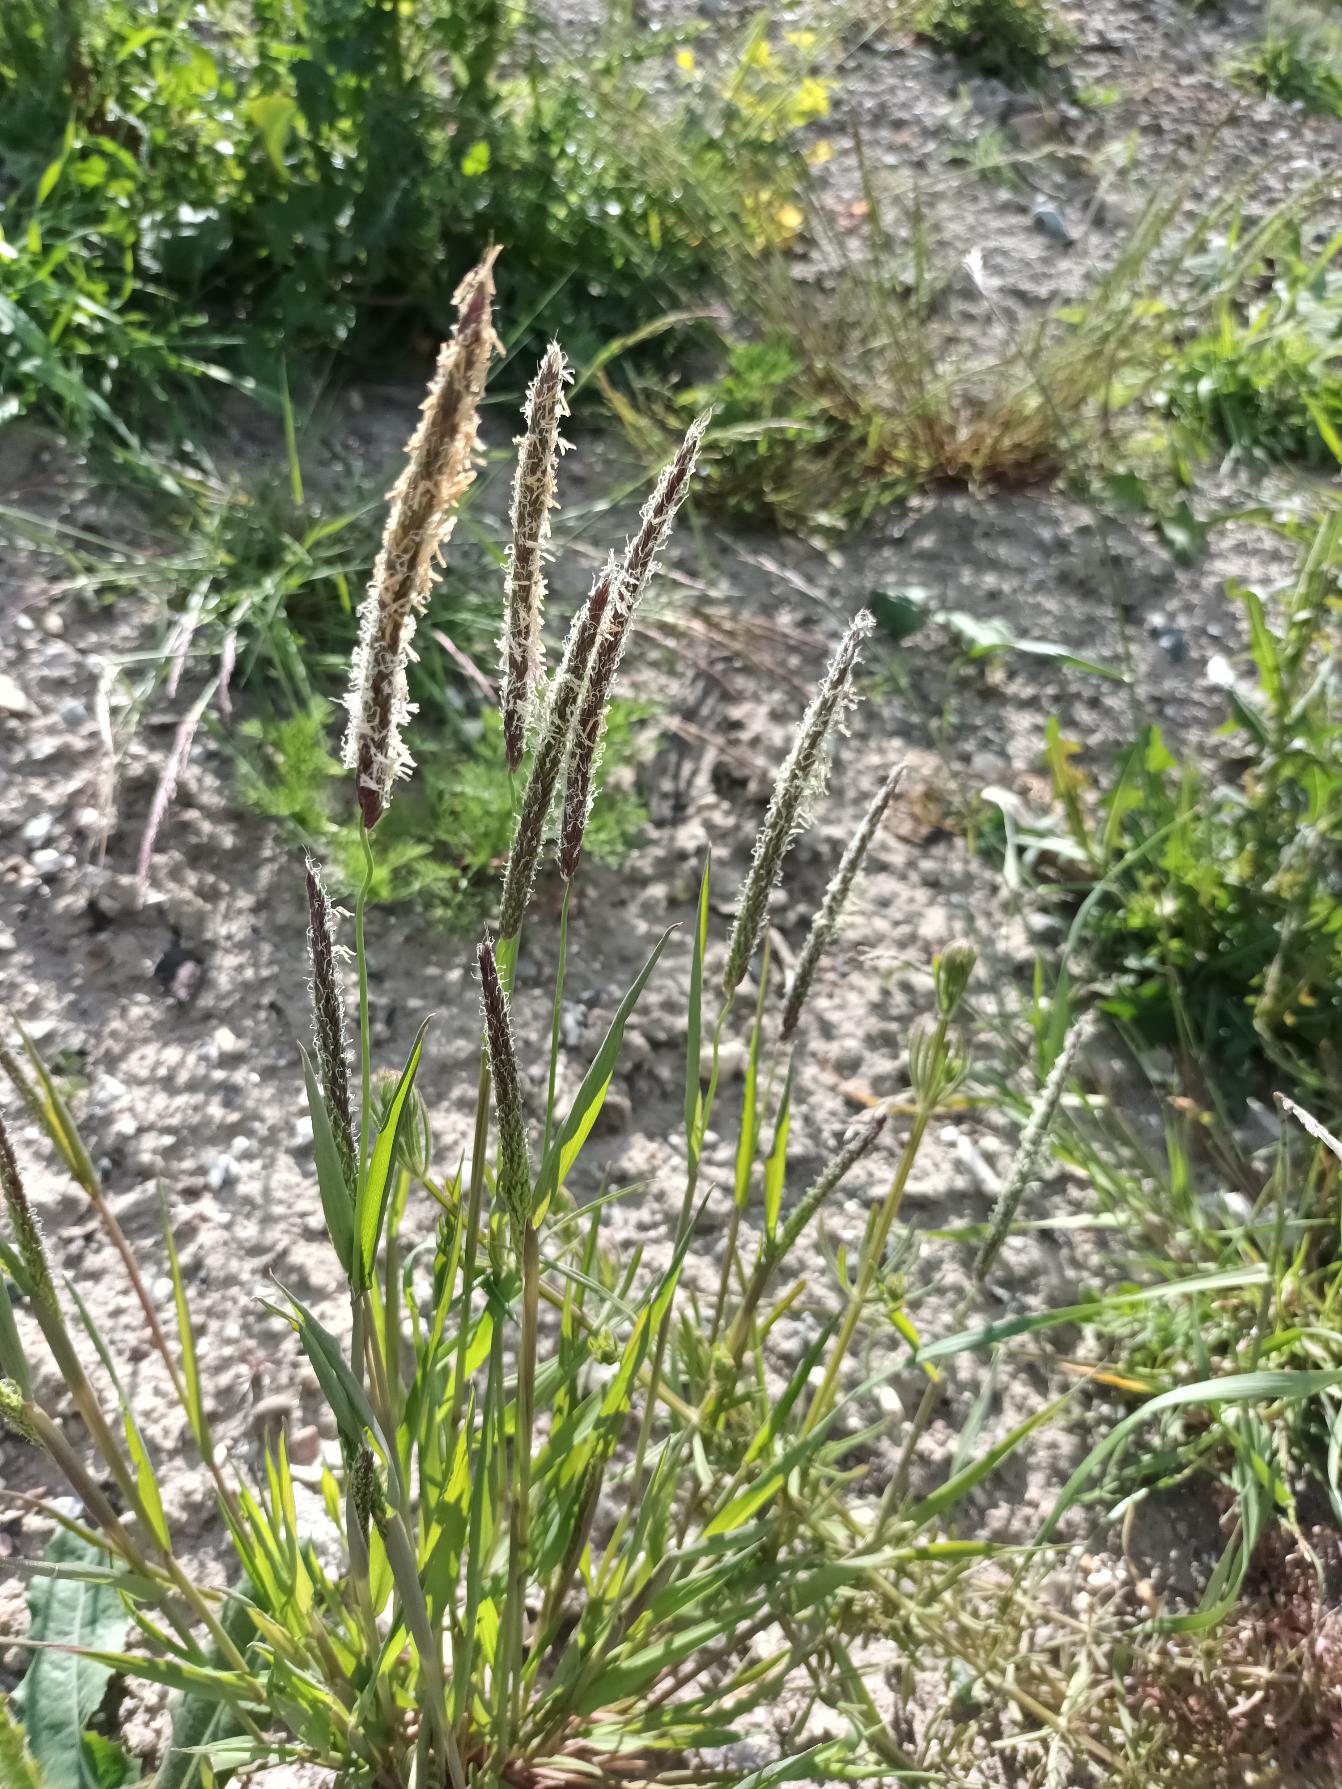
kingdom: Plantae
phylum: Tracheophyta
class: Liliopsida
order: Poales
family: Poaceae
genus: Alopecurus
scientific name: Alopecurus pratensis
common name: Eng-rævehale
